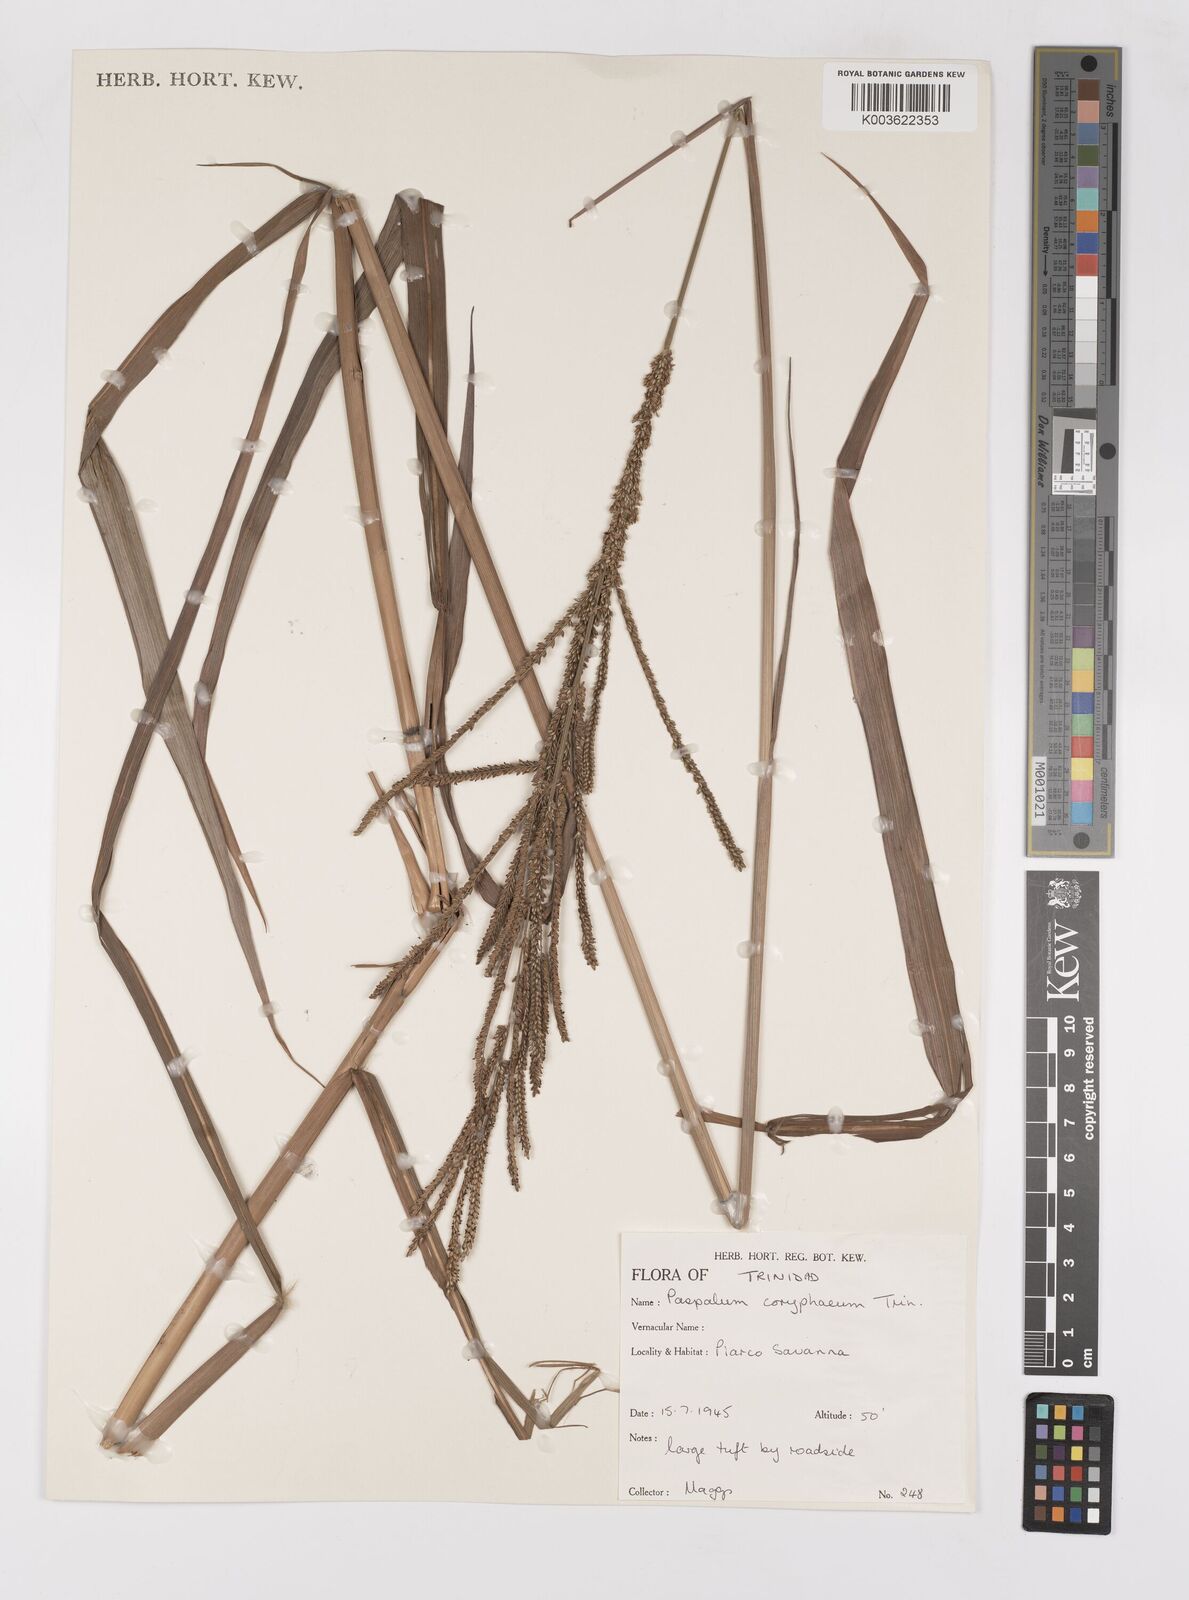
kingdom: Plantae
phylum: Tracheophyta
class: Liliopsida
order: Poales
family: Poaceae
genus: Paspalum
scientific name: Paspalum coryphaeum
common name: Emperor crowngrass
